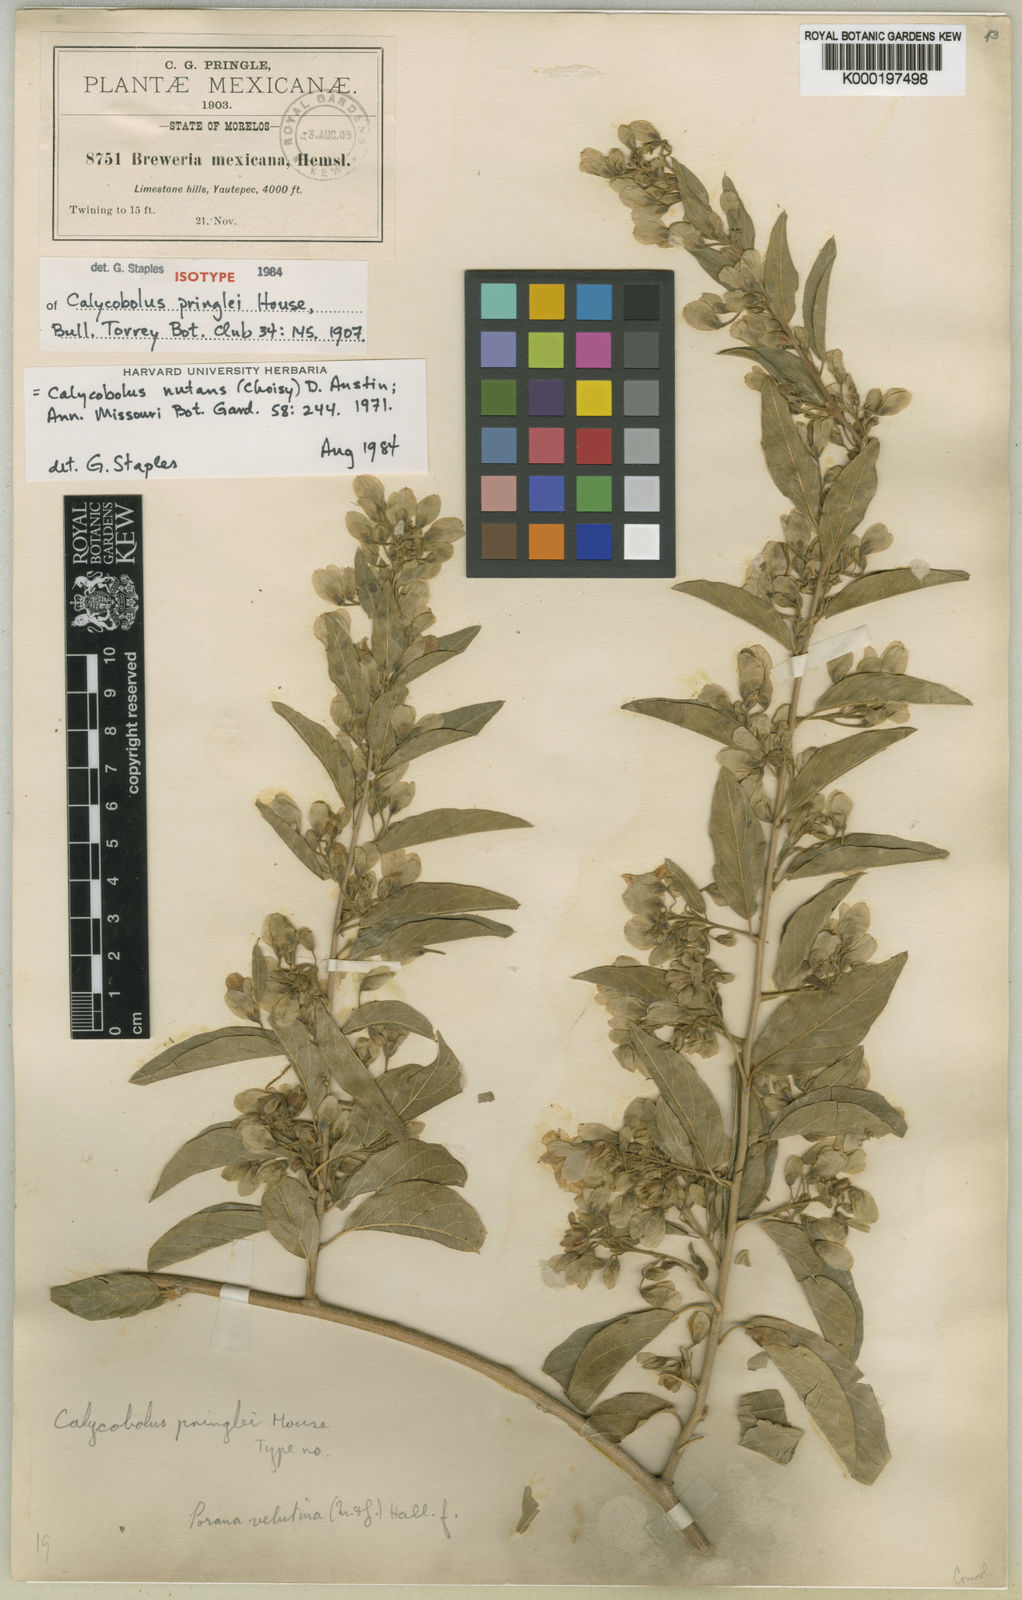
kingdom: Plantae
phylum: Tracheophyta
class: Magnoliopsida
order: Solanales
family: Convolvulaceae
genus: Calycobolus
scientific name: Calycobolus nutans
